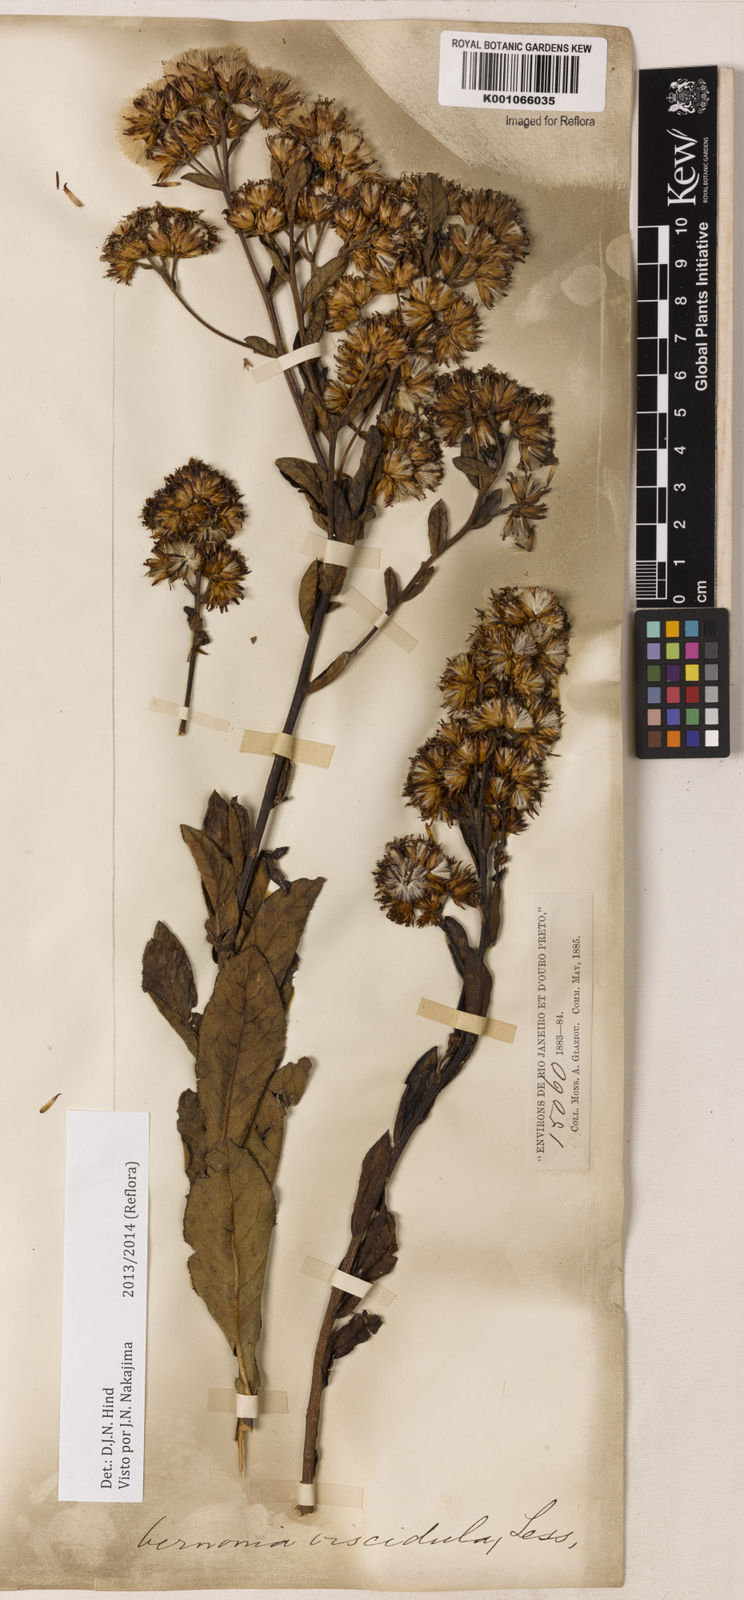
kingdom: Plantae
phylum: Tracheophyta
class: Magnoliopsida
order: Asterales
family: Asteraceae
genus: Vernonanthura
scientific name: Vernonanthura viscidula
